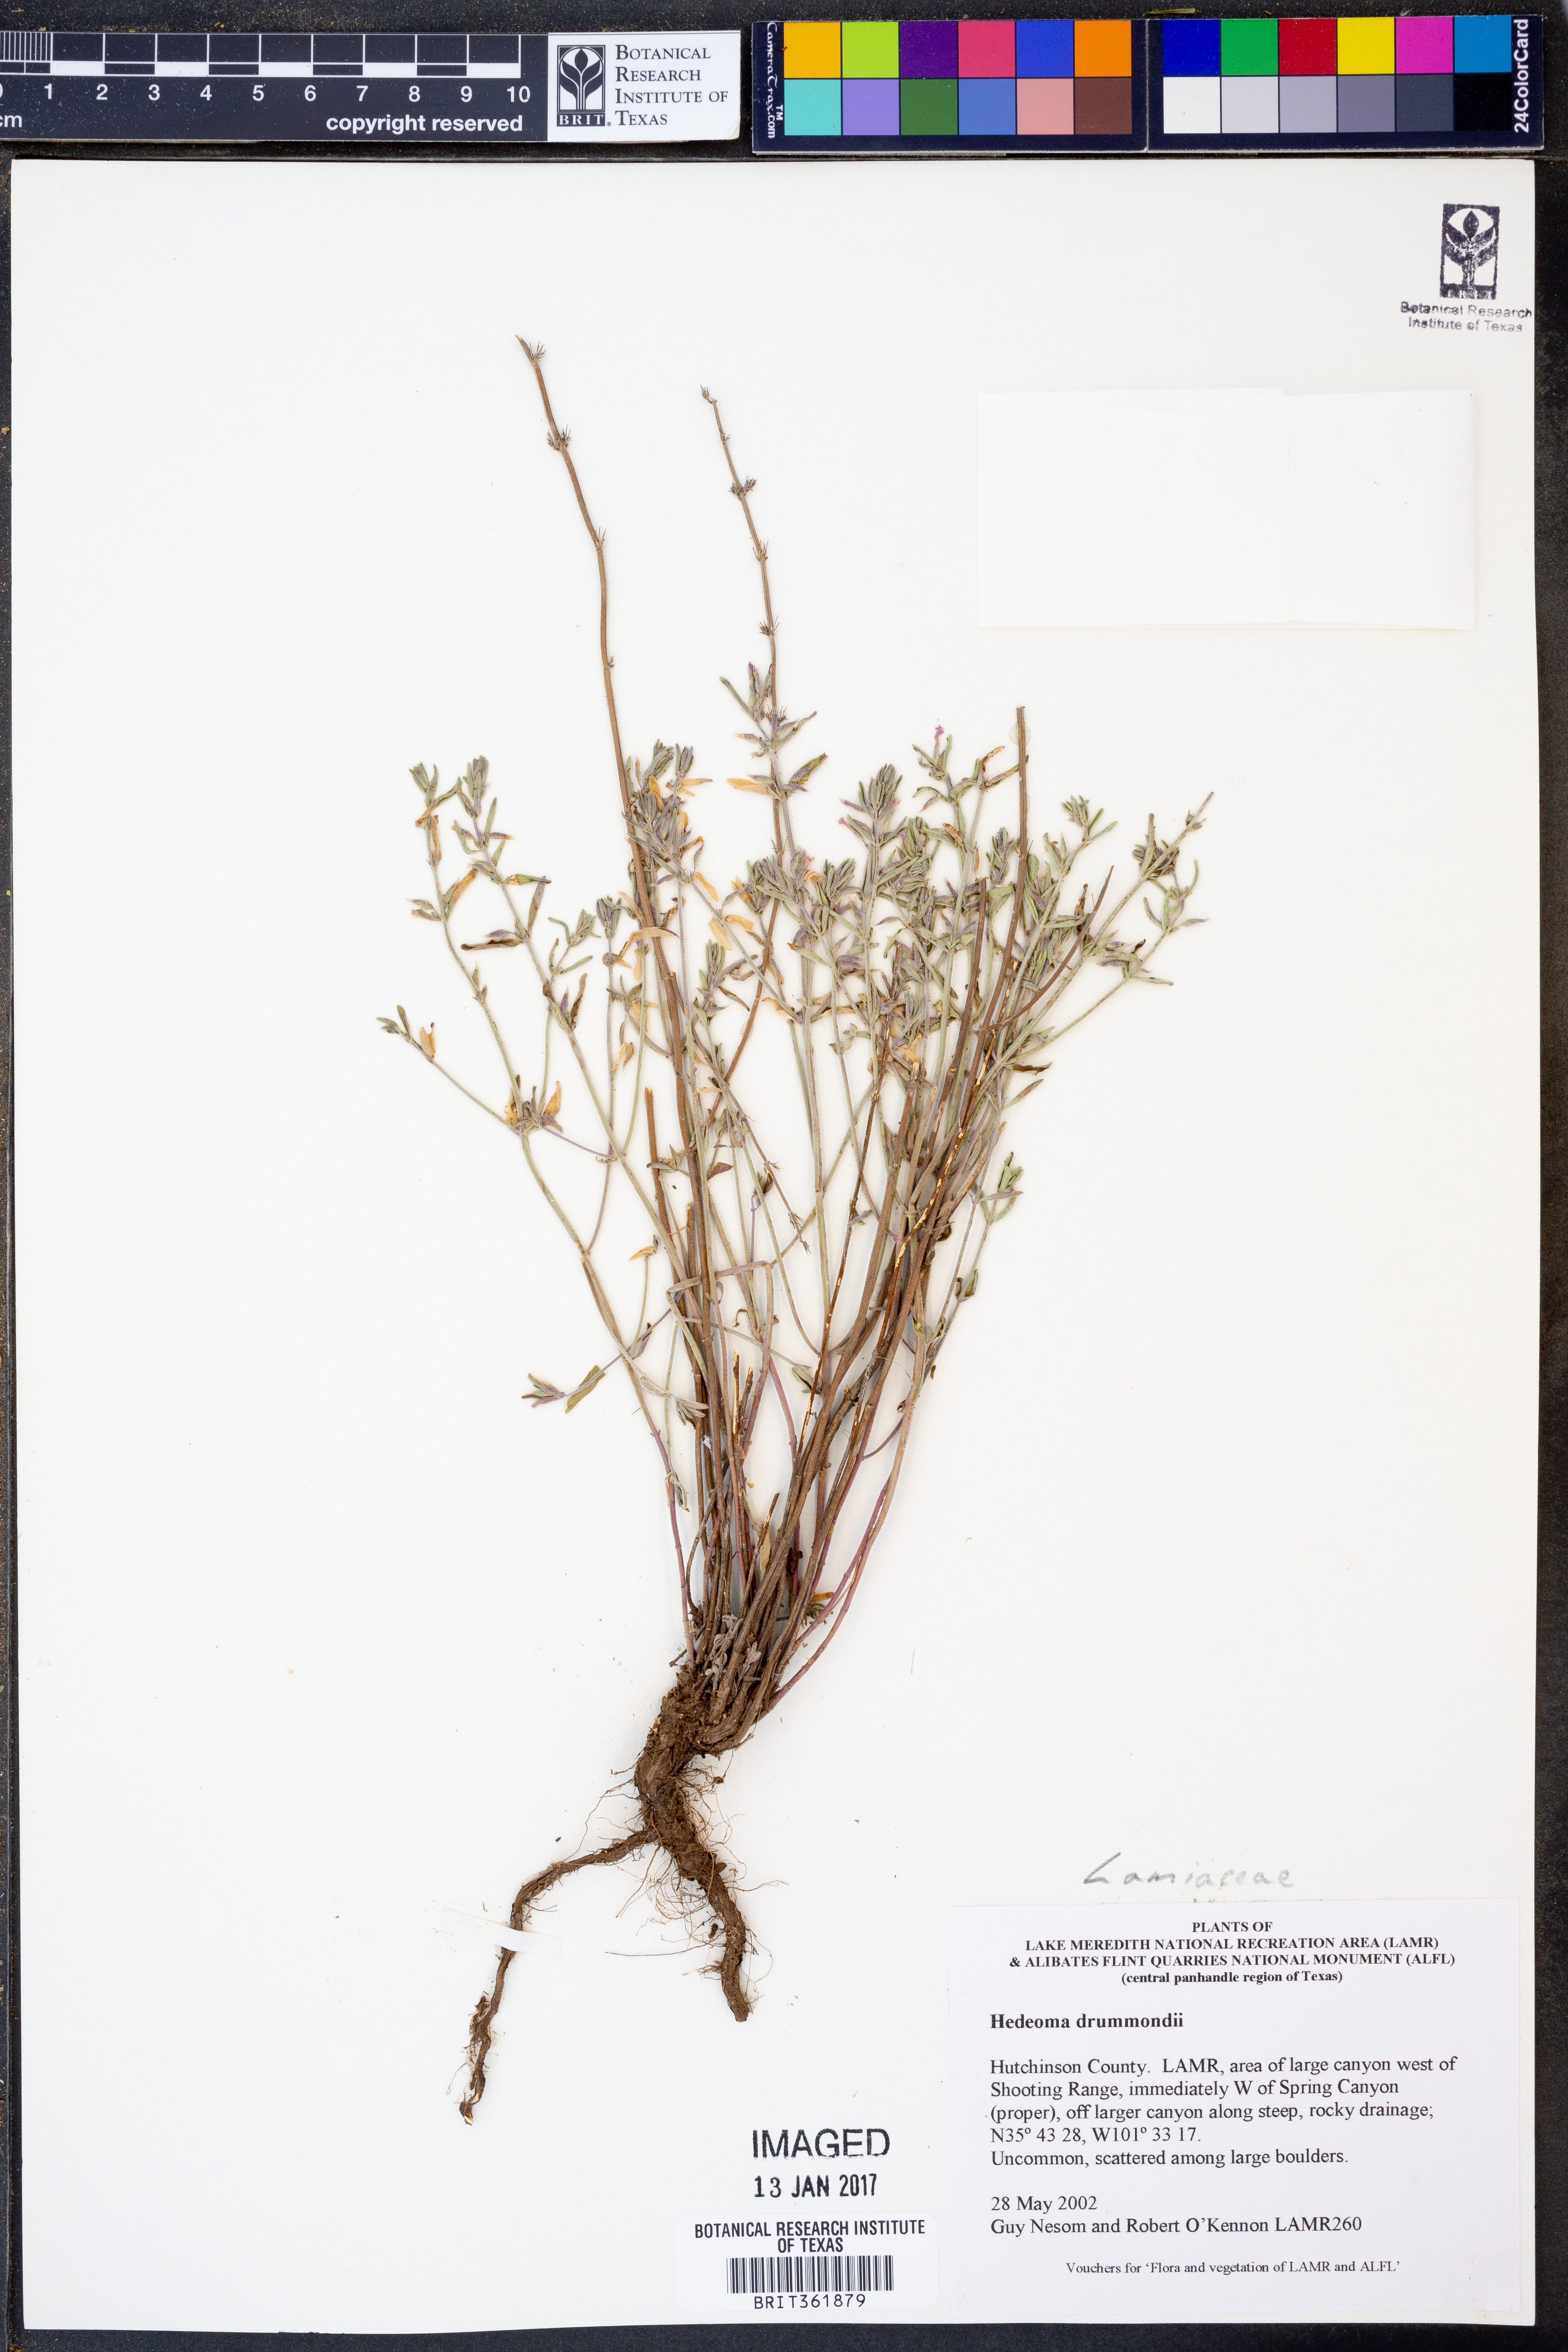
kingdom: Plantae
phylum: Tracheophyta
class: Magnoliopsida
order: Lamiales
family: Lamiaceae
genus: Hedeoma
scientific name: Hedeoma drummondii
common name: New mexico pennyroyal
